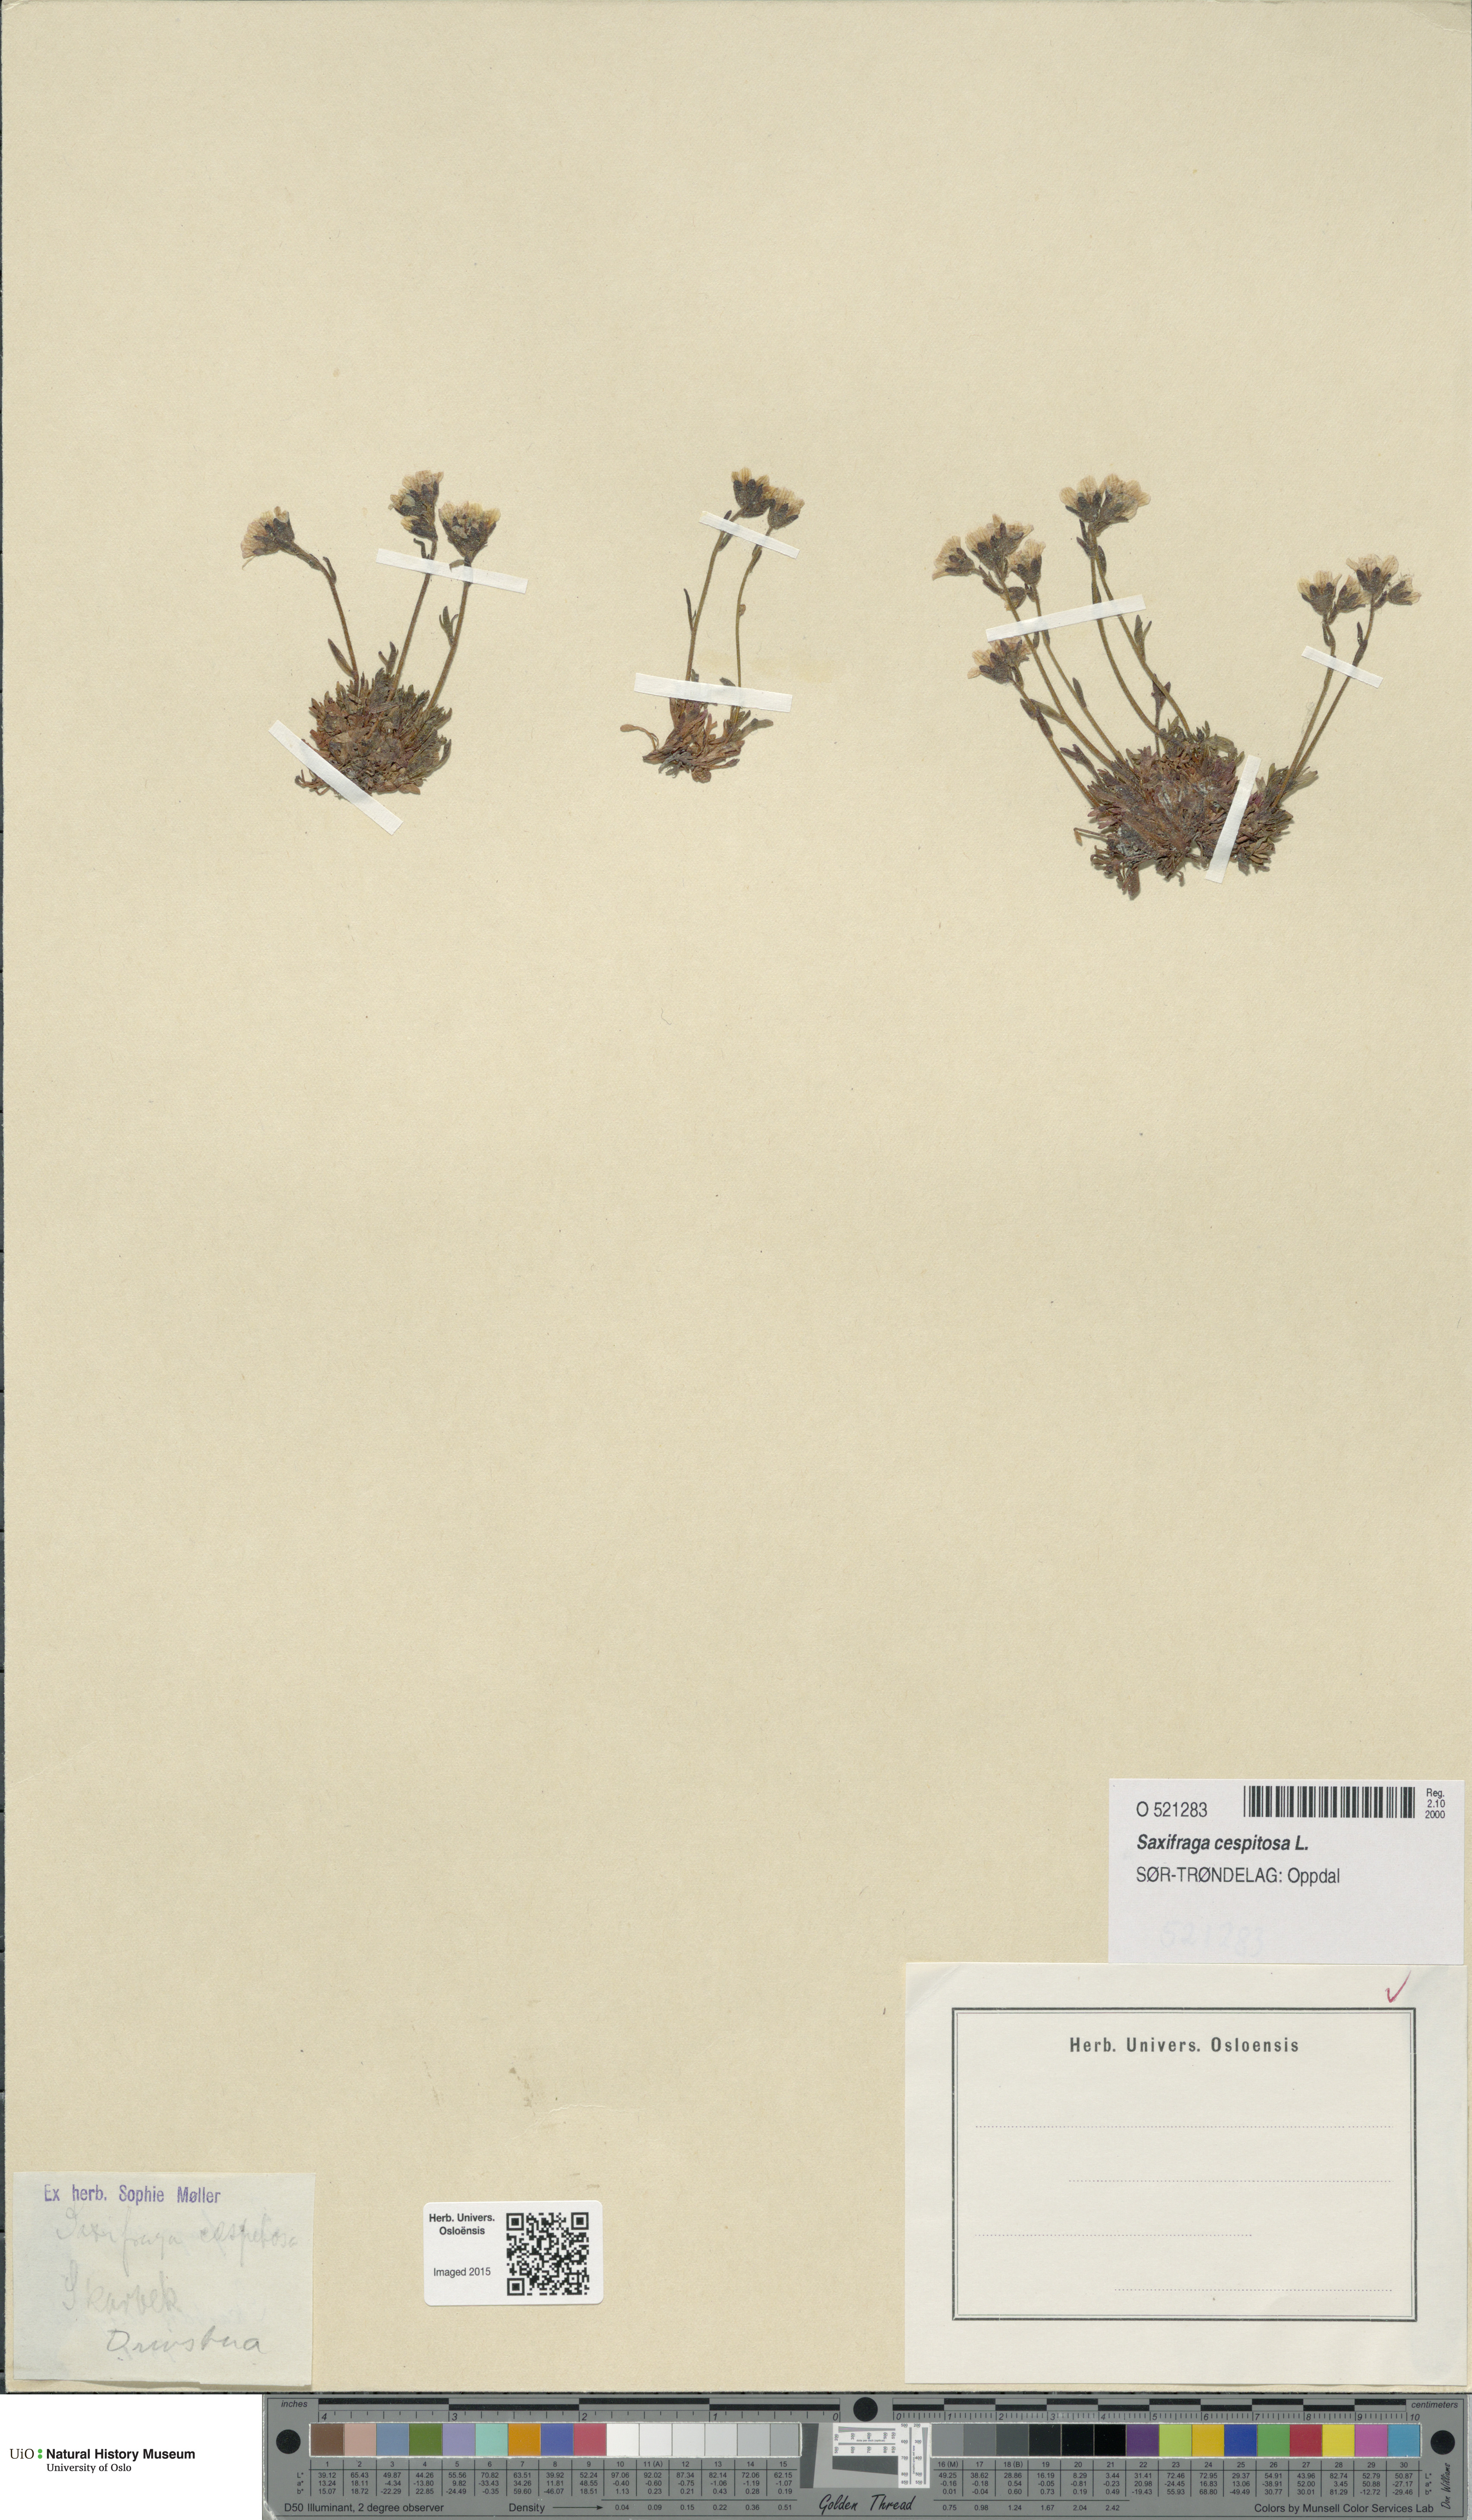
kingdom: Plantae
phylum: Tracheophyta
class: Magnoliopsida
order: Saxifragales
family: Saxifragaceae
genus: Saxifraga
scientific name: Saxifraga cespitosa
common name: Tufted saxifrage
